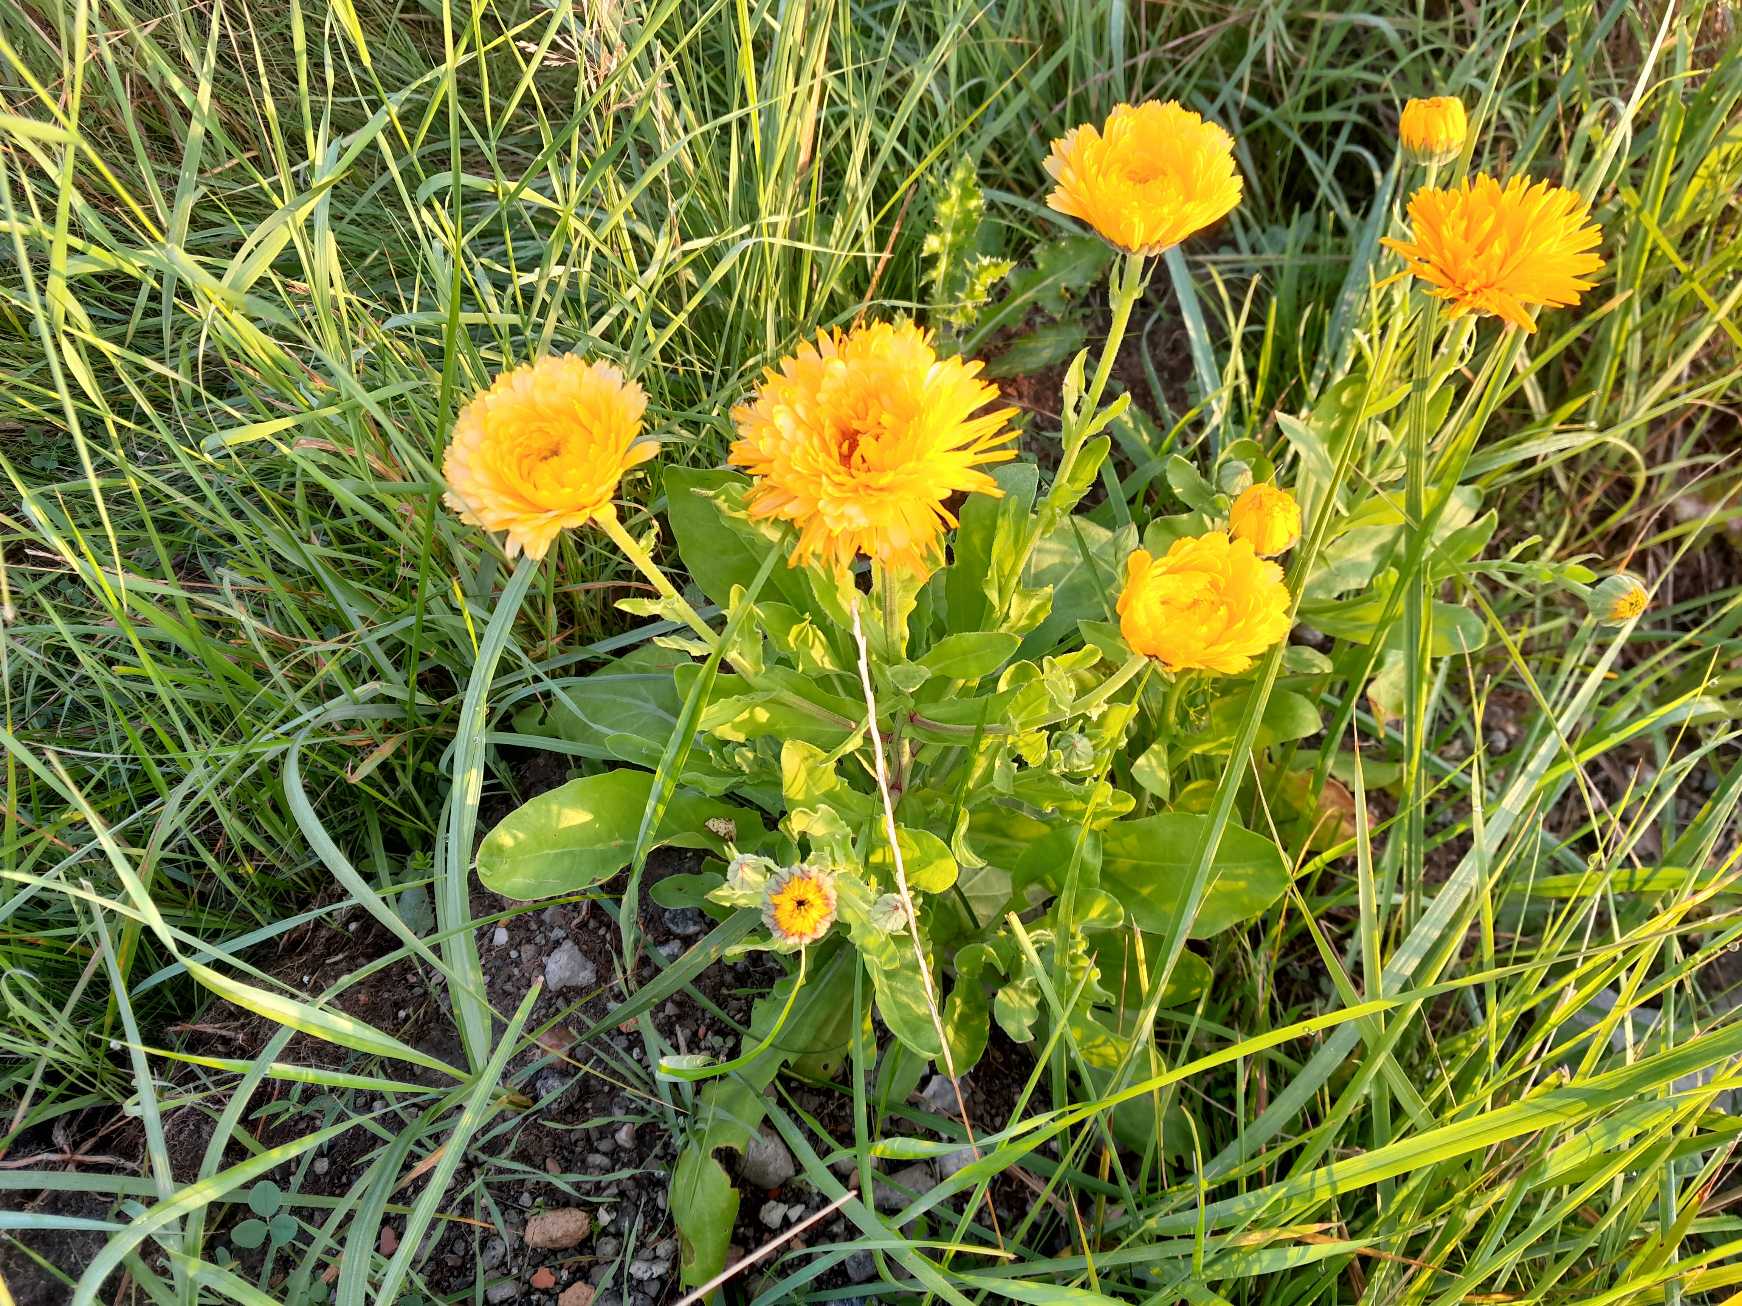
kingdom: Plantae
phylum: Tracheophyta
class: Magnoliopsida
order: Asterales
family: Asteraceae
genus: Calendula
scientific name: Calendula officinalis
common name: Have-morgenfrue
